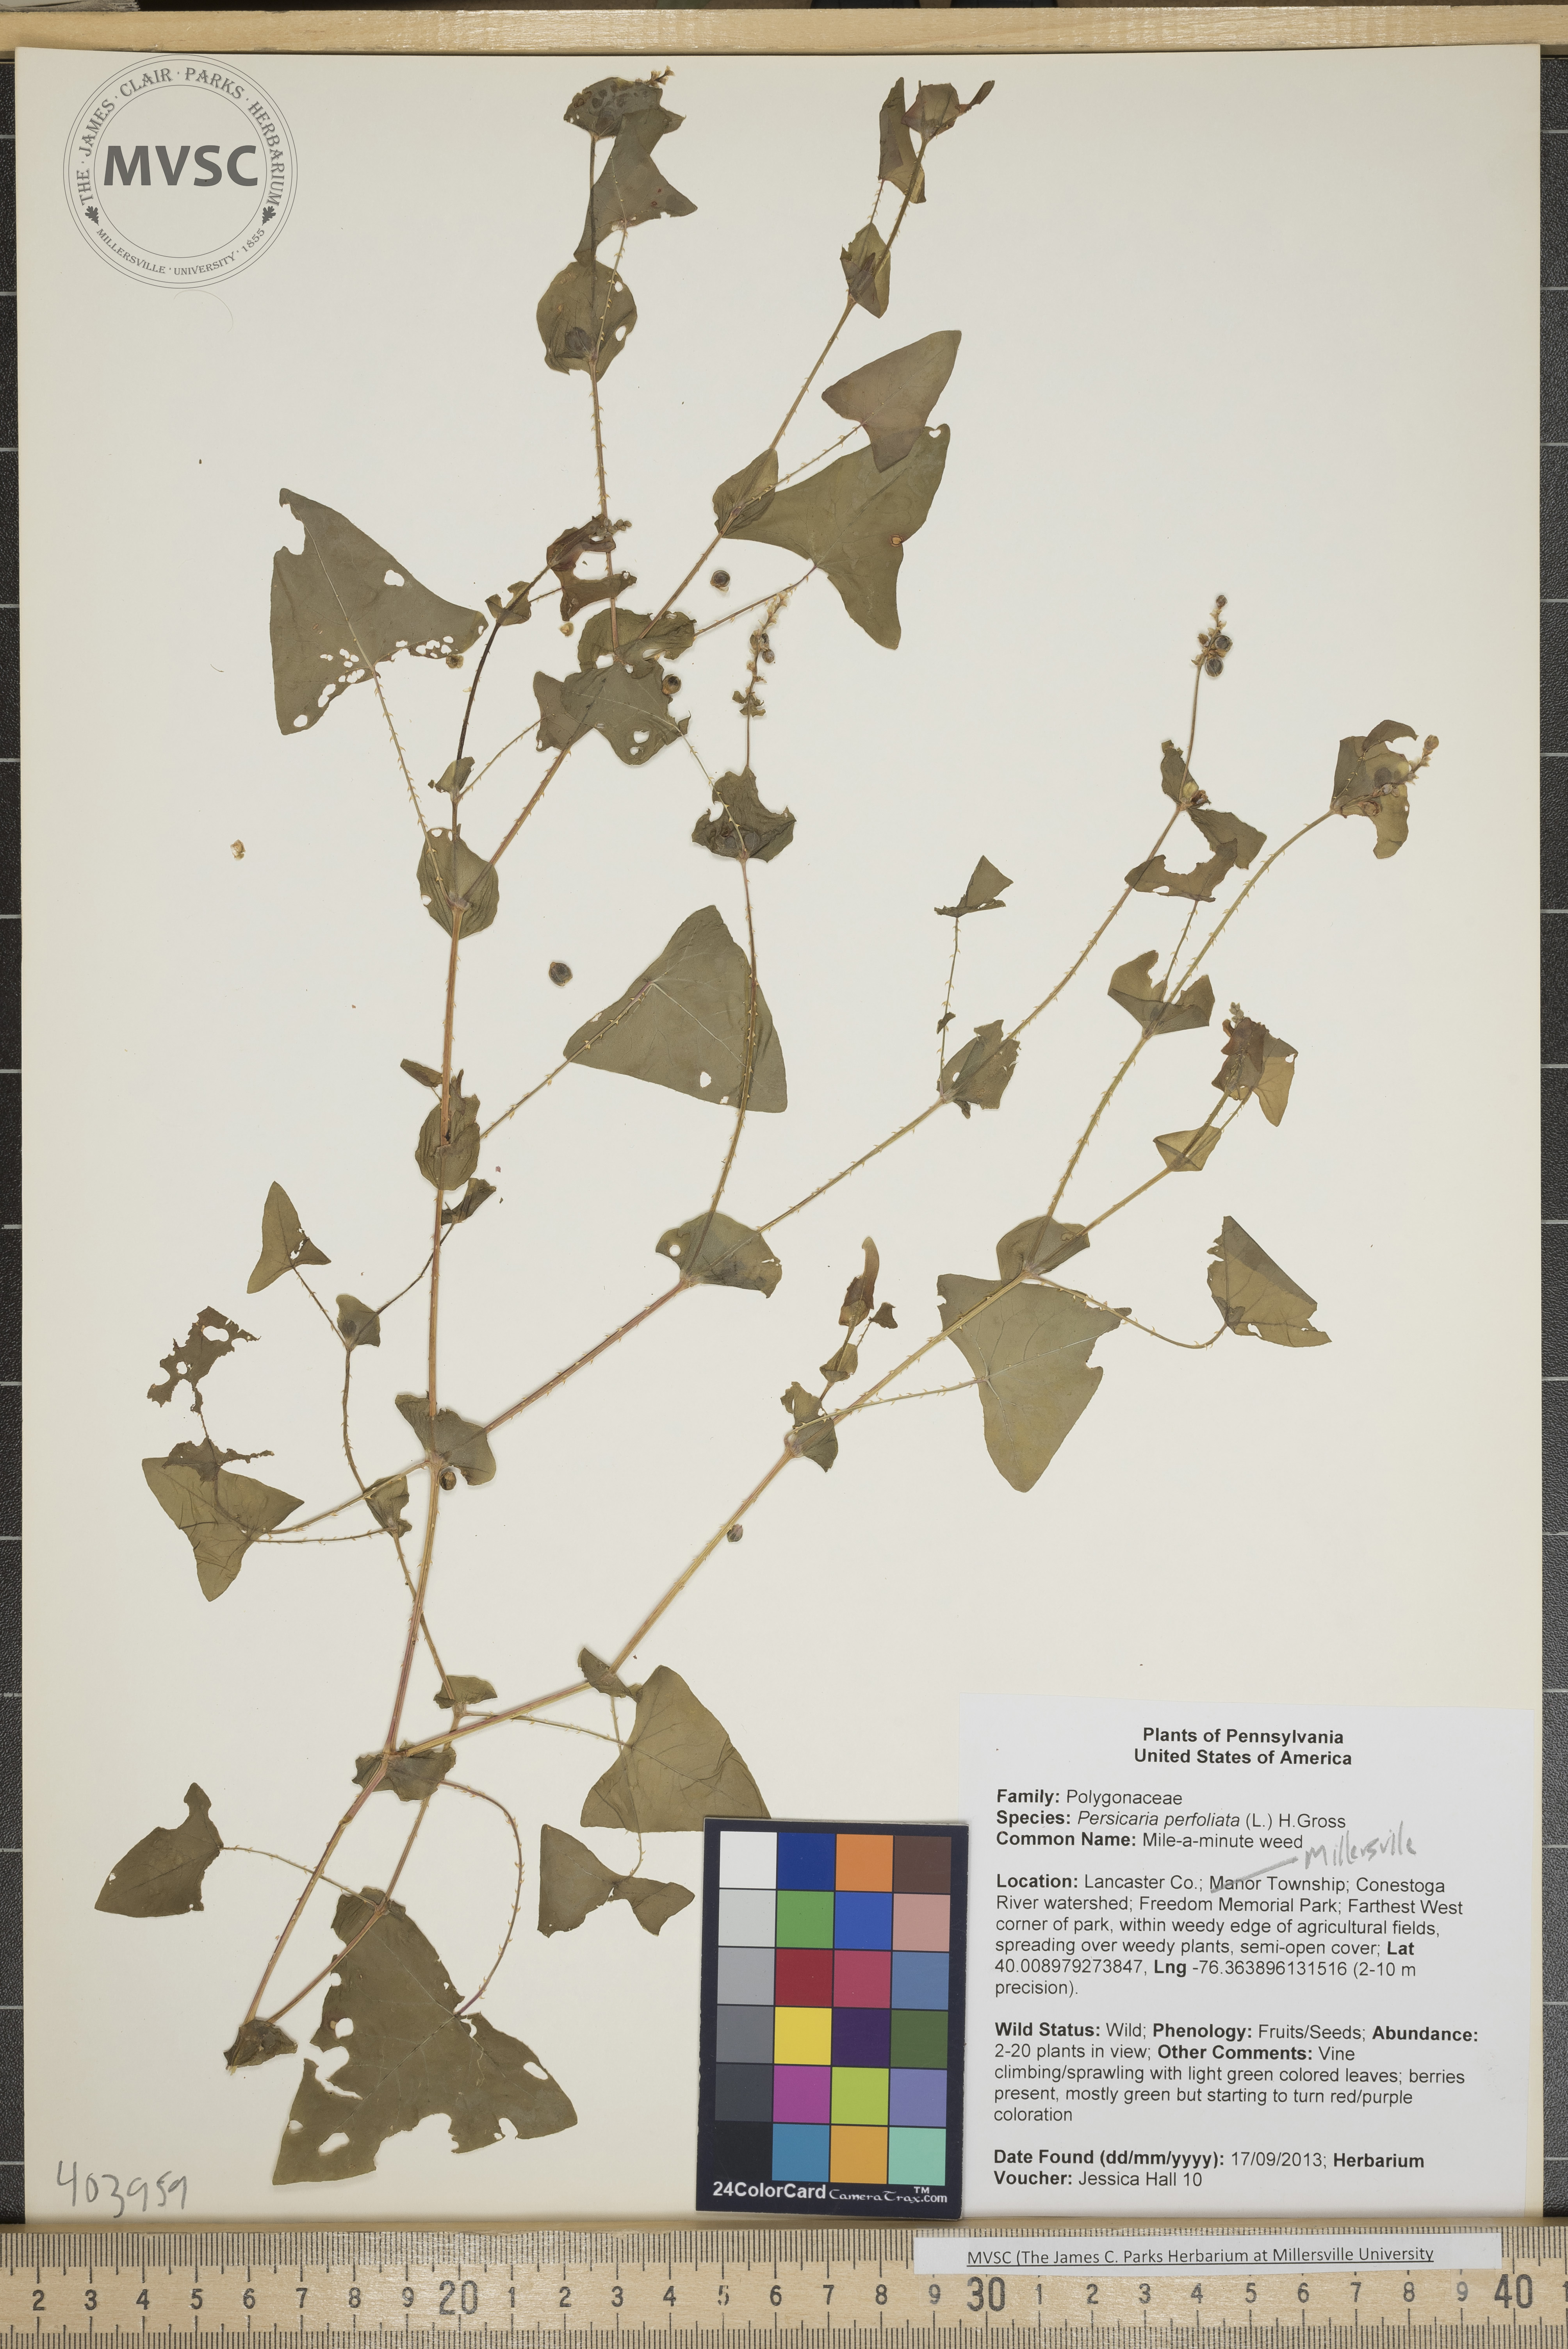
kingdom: Plantae
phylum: Tracheophyta
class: Magnoliopsida
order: Caryophyllales
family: Polygonaceae
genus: Persicaria
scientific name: Persicaria perfoliata
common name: Mile-a-minute weed
